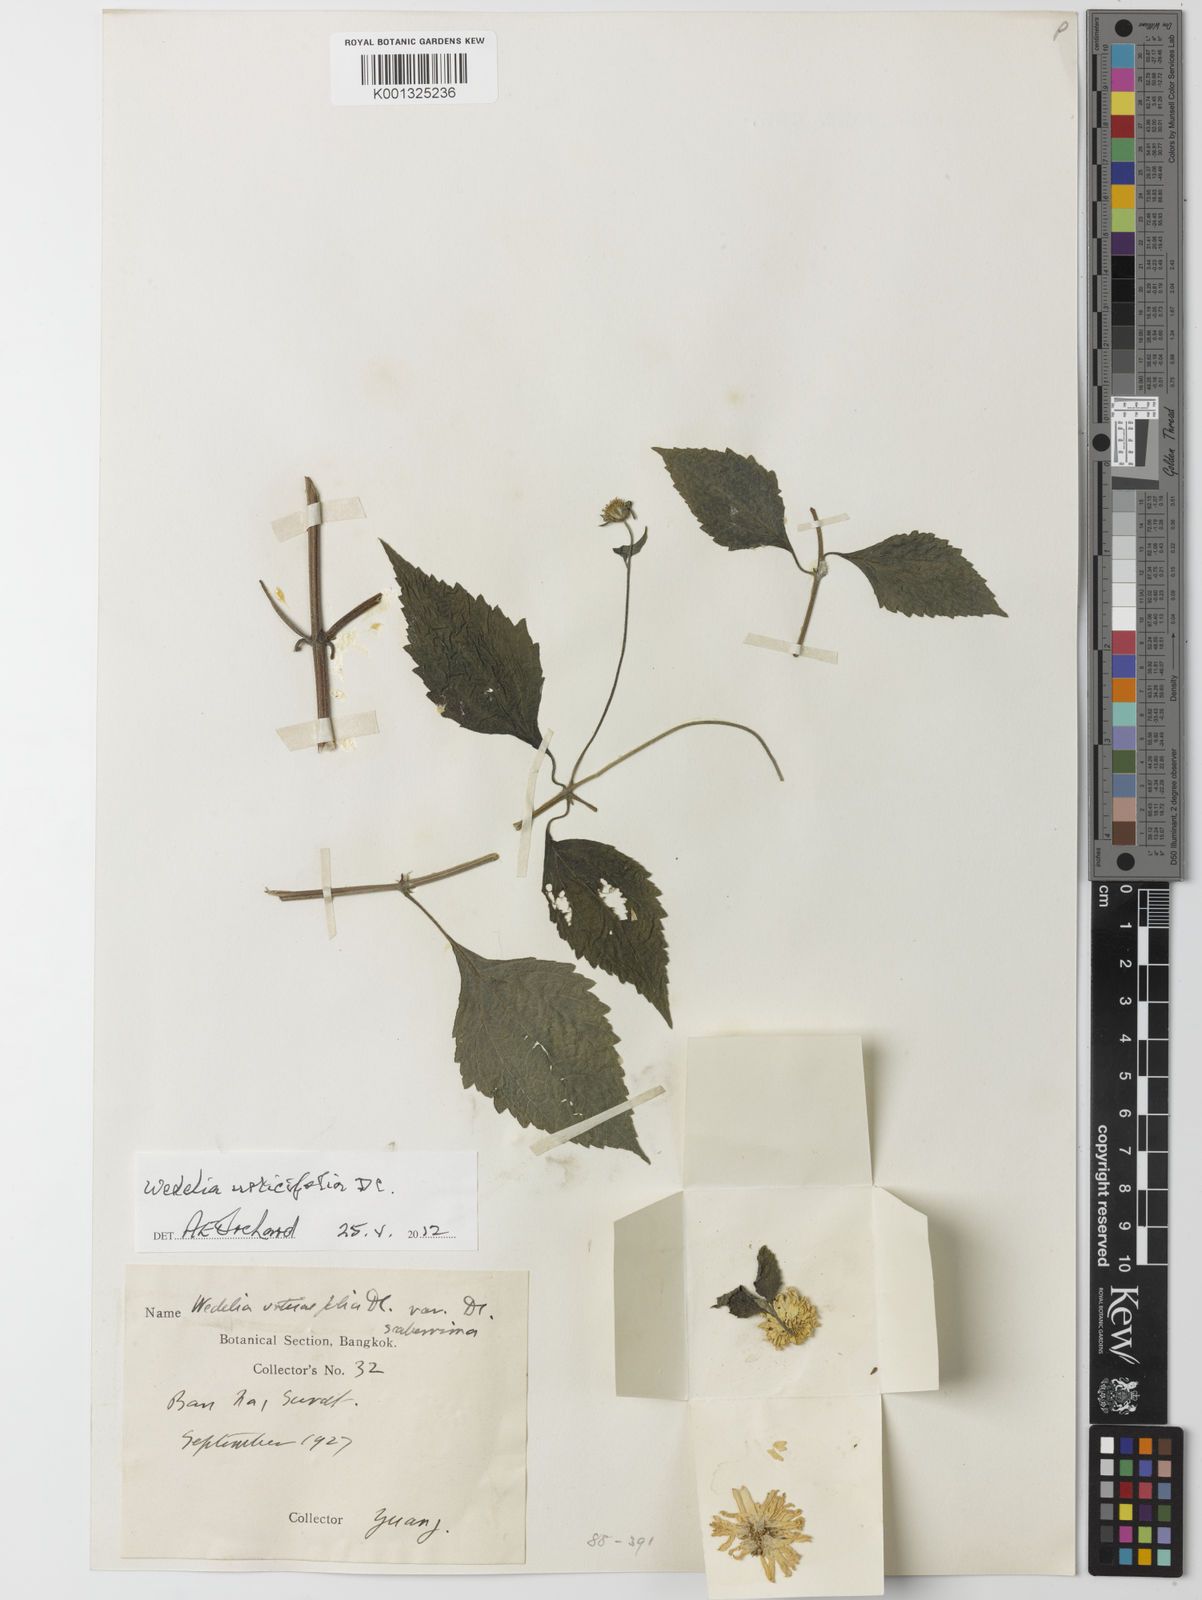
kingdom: Plantae
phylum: Tracheophyta
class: Magnoliopsida
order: Asterales
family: Asteraceae
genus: Lipoblepharis
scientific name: Lipoblepharis urticifolia
